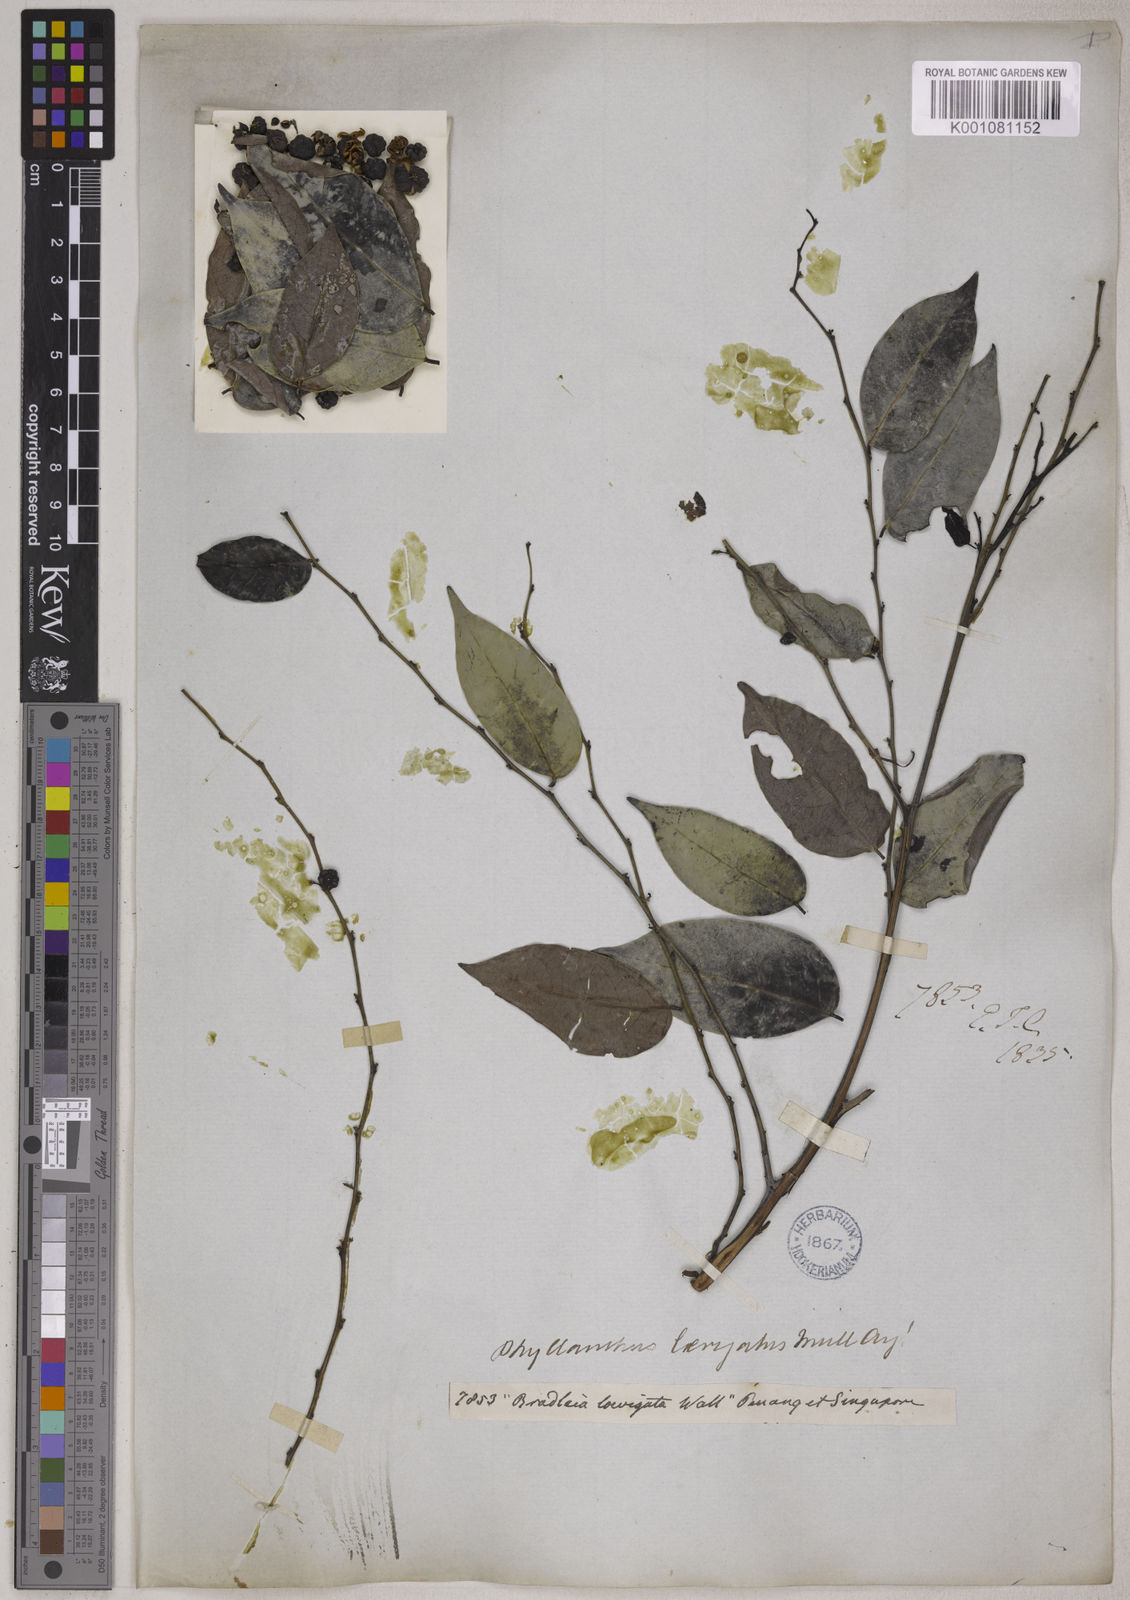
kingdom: Plantae
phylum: Tracheophyta
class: Magnoliopsida
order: Malpighiales
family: Phyllanthaceae
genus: Glochidion
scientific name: Glochidion lutescens
